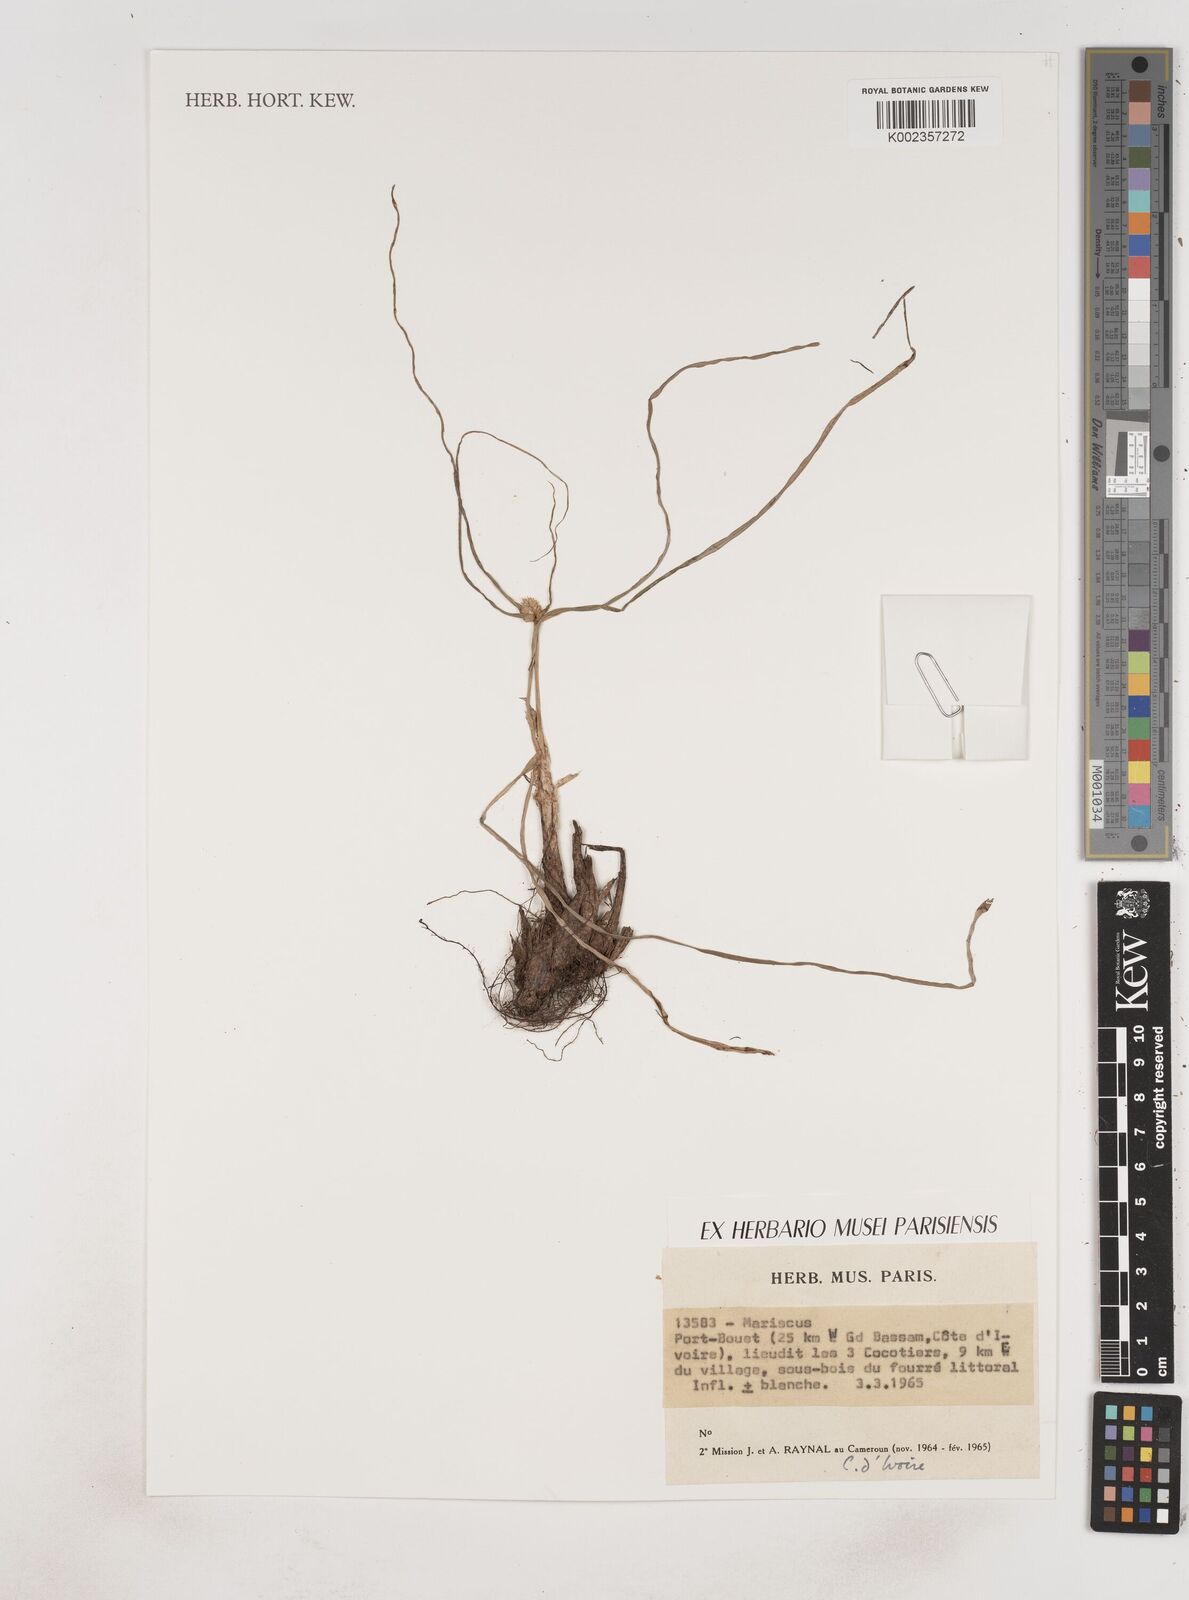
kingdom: Plantae
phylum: Tracheophyta
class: Liliopsida
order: Poales
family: Cyperaceae
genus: Cyperus
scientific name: Cyperus
